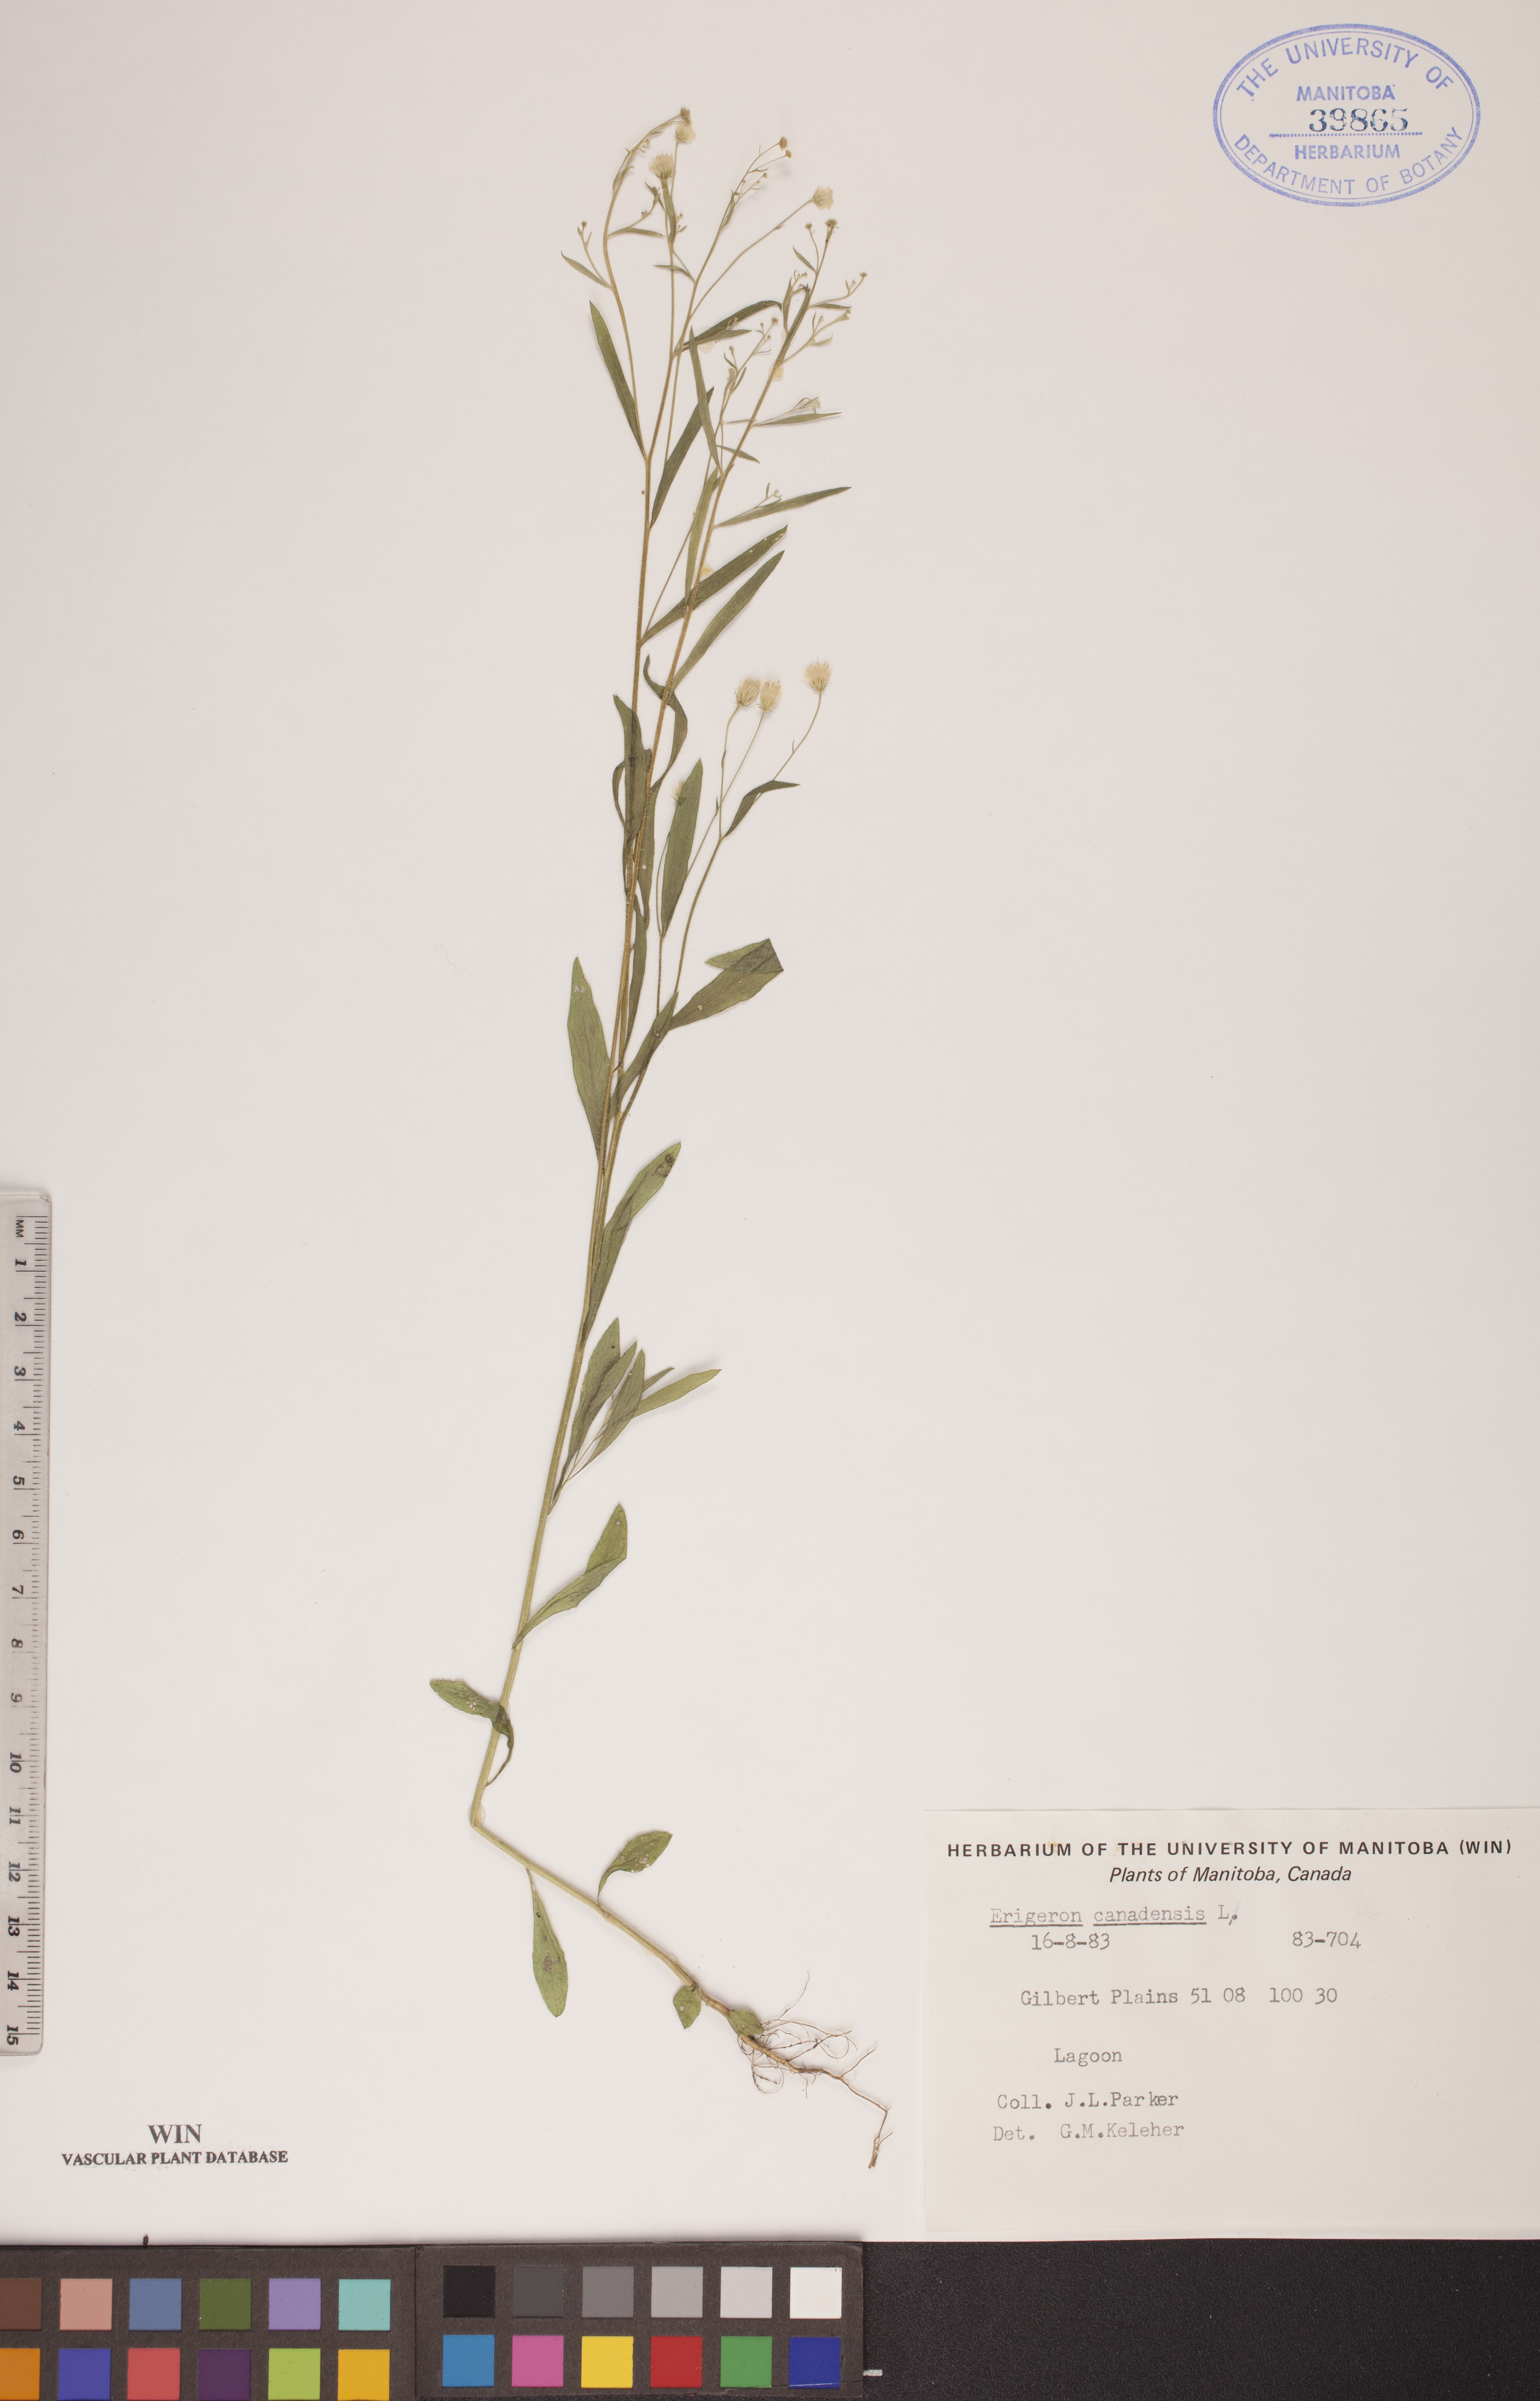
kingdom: Plantae
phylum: Tracheophyta
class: Magnoliopsida
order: Asterales
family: Asteraceae
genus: Erigeron
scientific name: Erigeron canadensis
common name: Canadian fleabane
